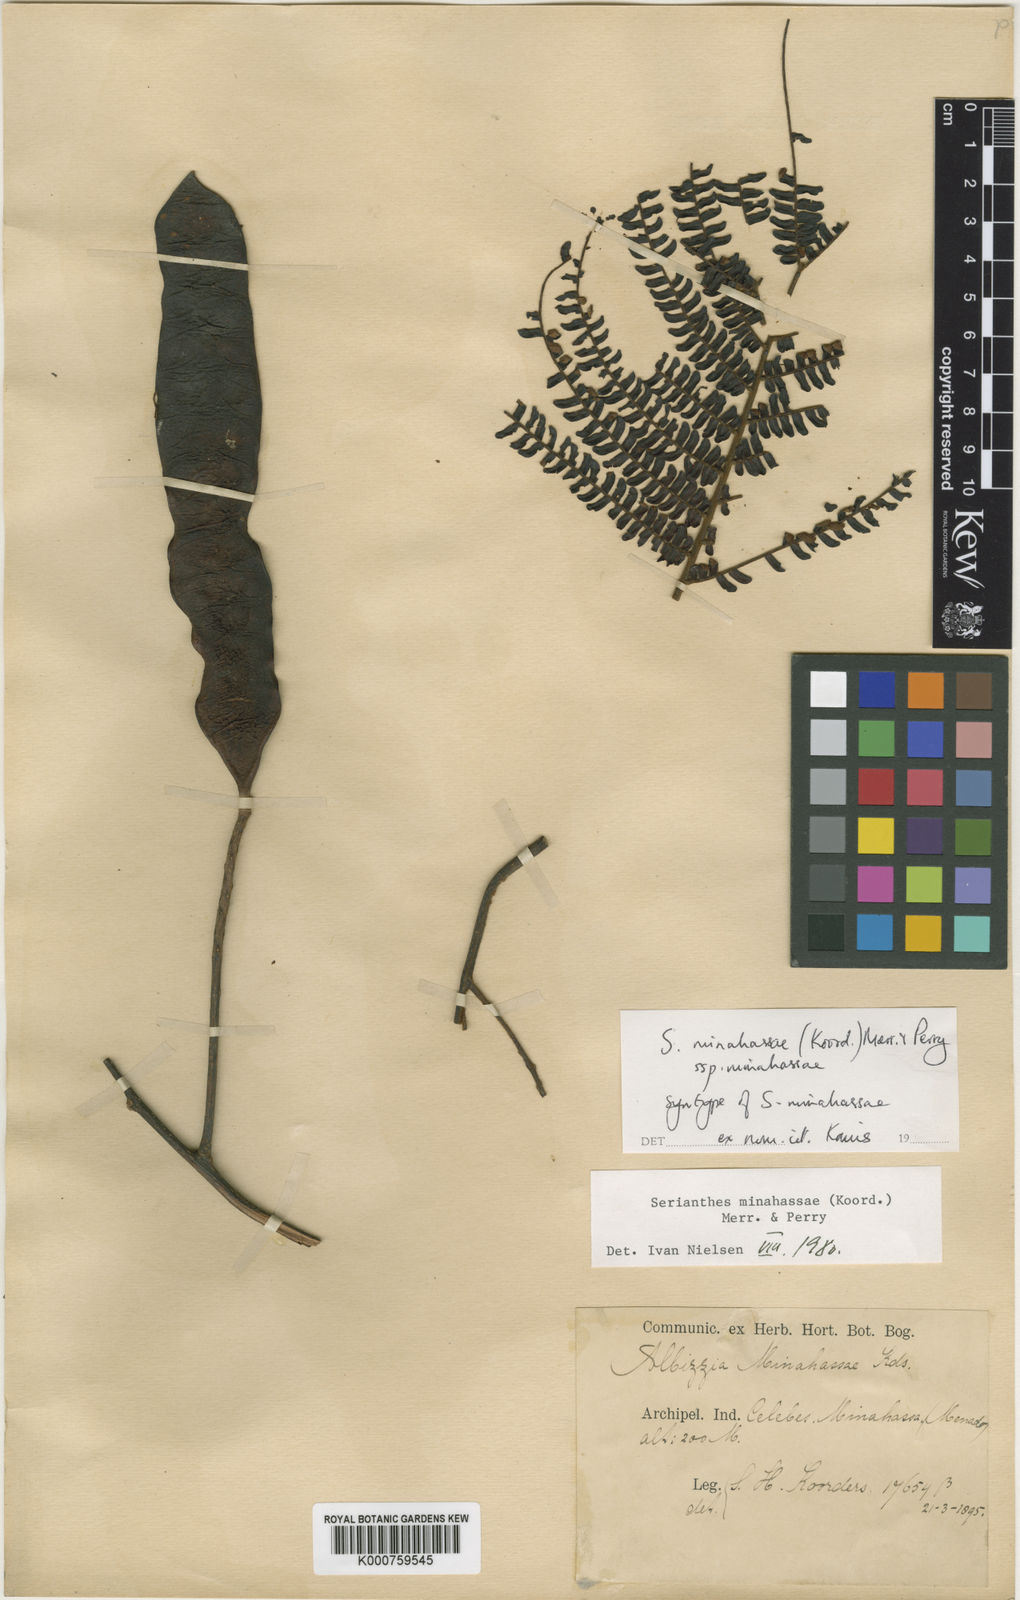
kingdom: Plantae
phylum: Tracheophyta
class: Magnoliopsida
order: Fabales
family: Fabaceae
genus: Serianthes
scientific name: Serianthes minahassae
